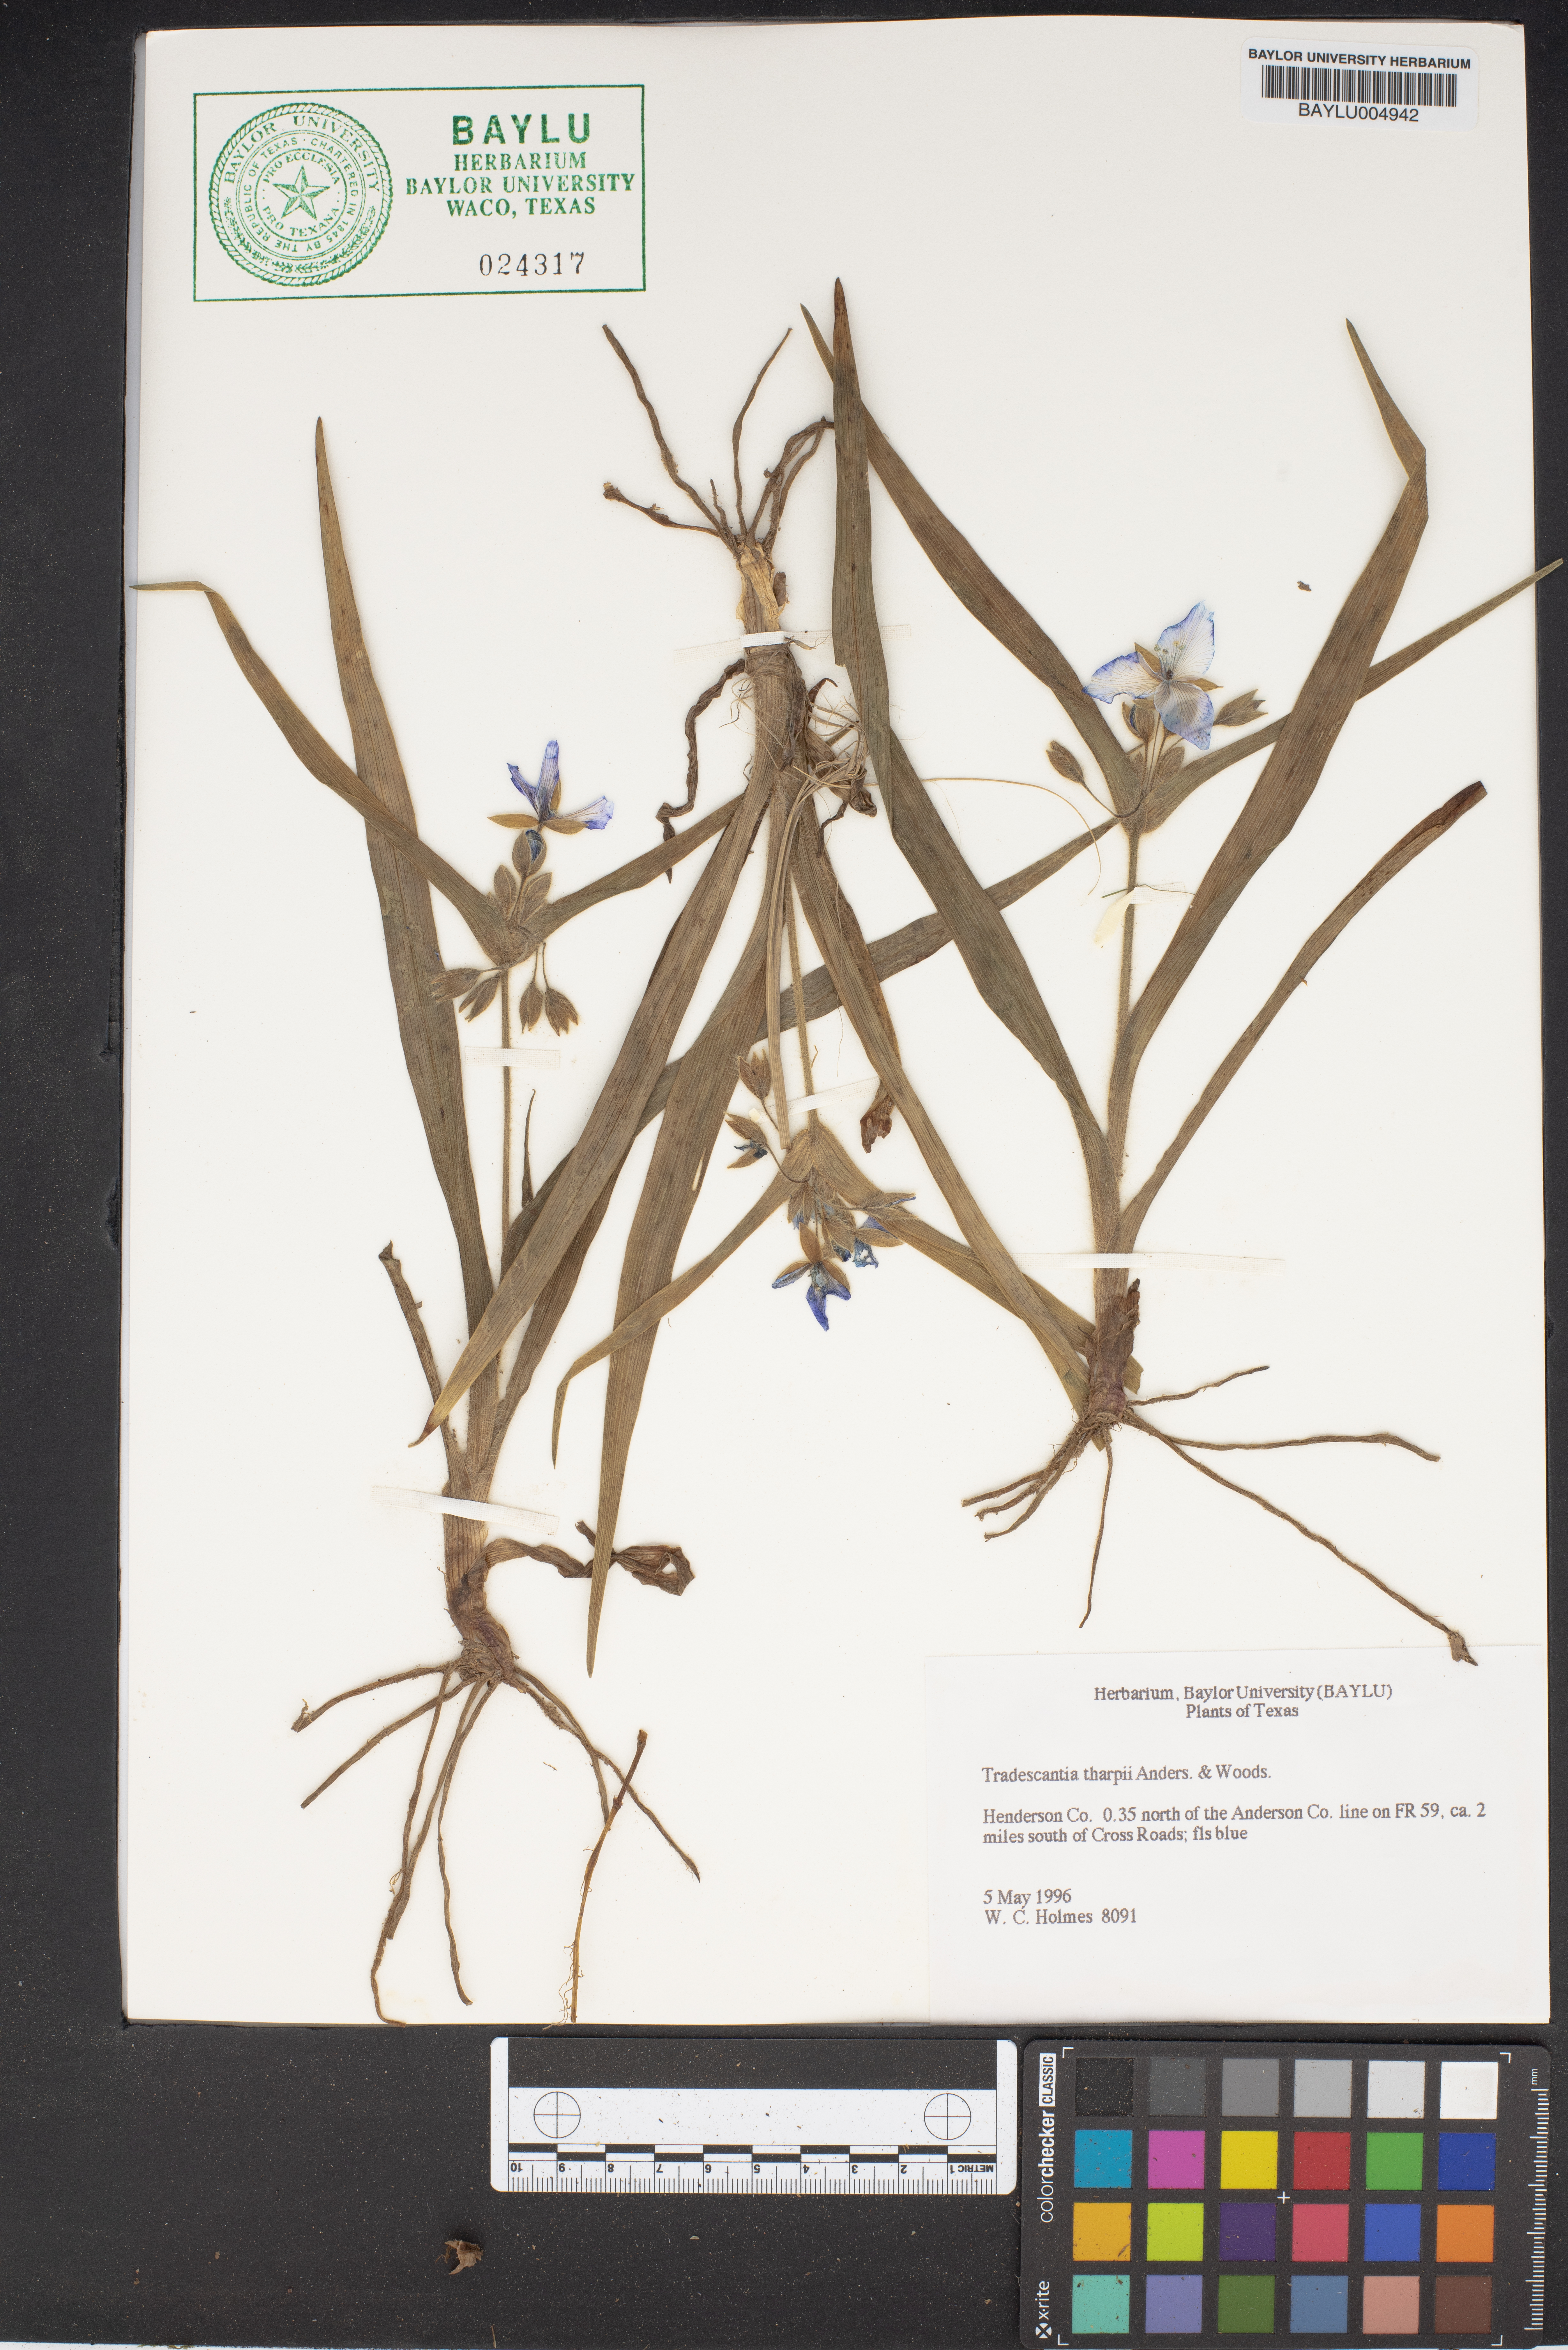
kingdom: Plantae
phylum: Tracheophyta
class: Liliopsida
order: Commelinales
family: Commelinaceae
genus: Tradescantia
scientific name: Tradescantia tharpii
